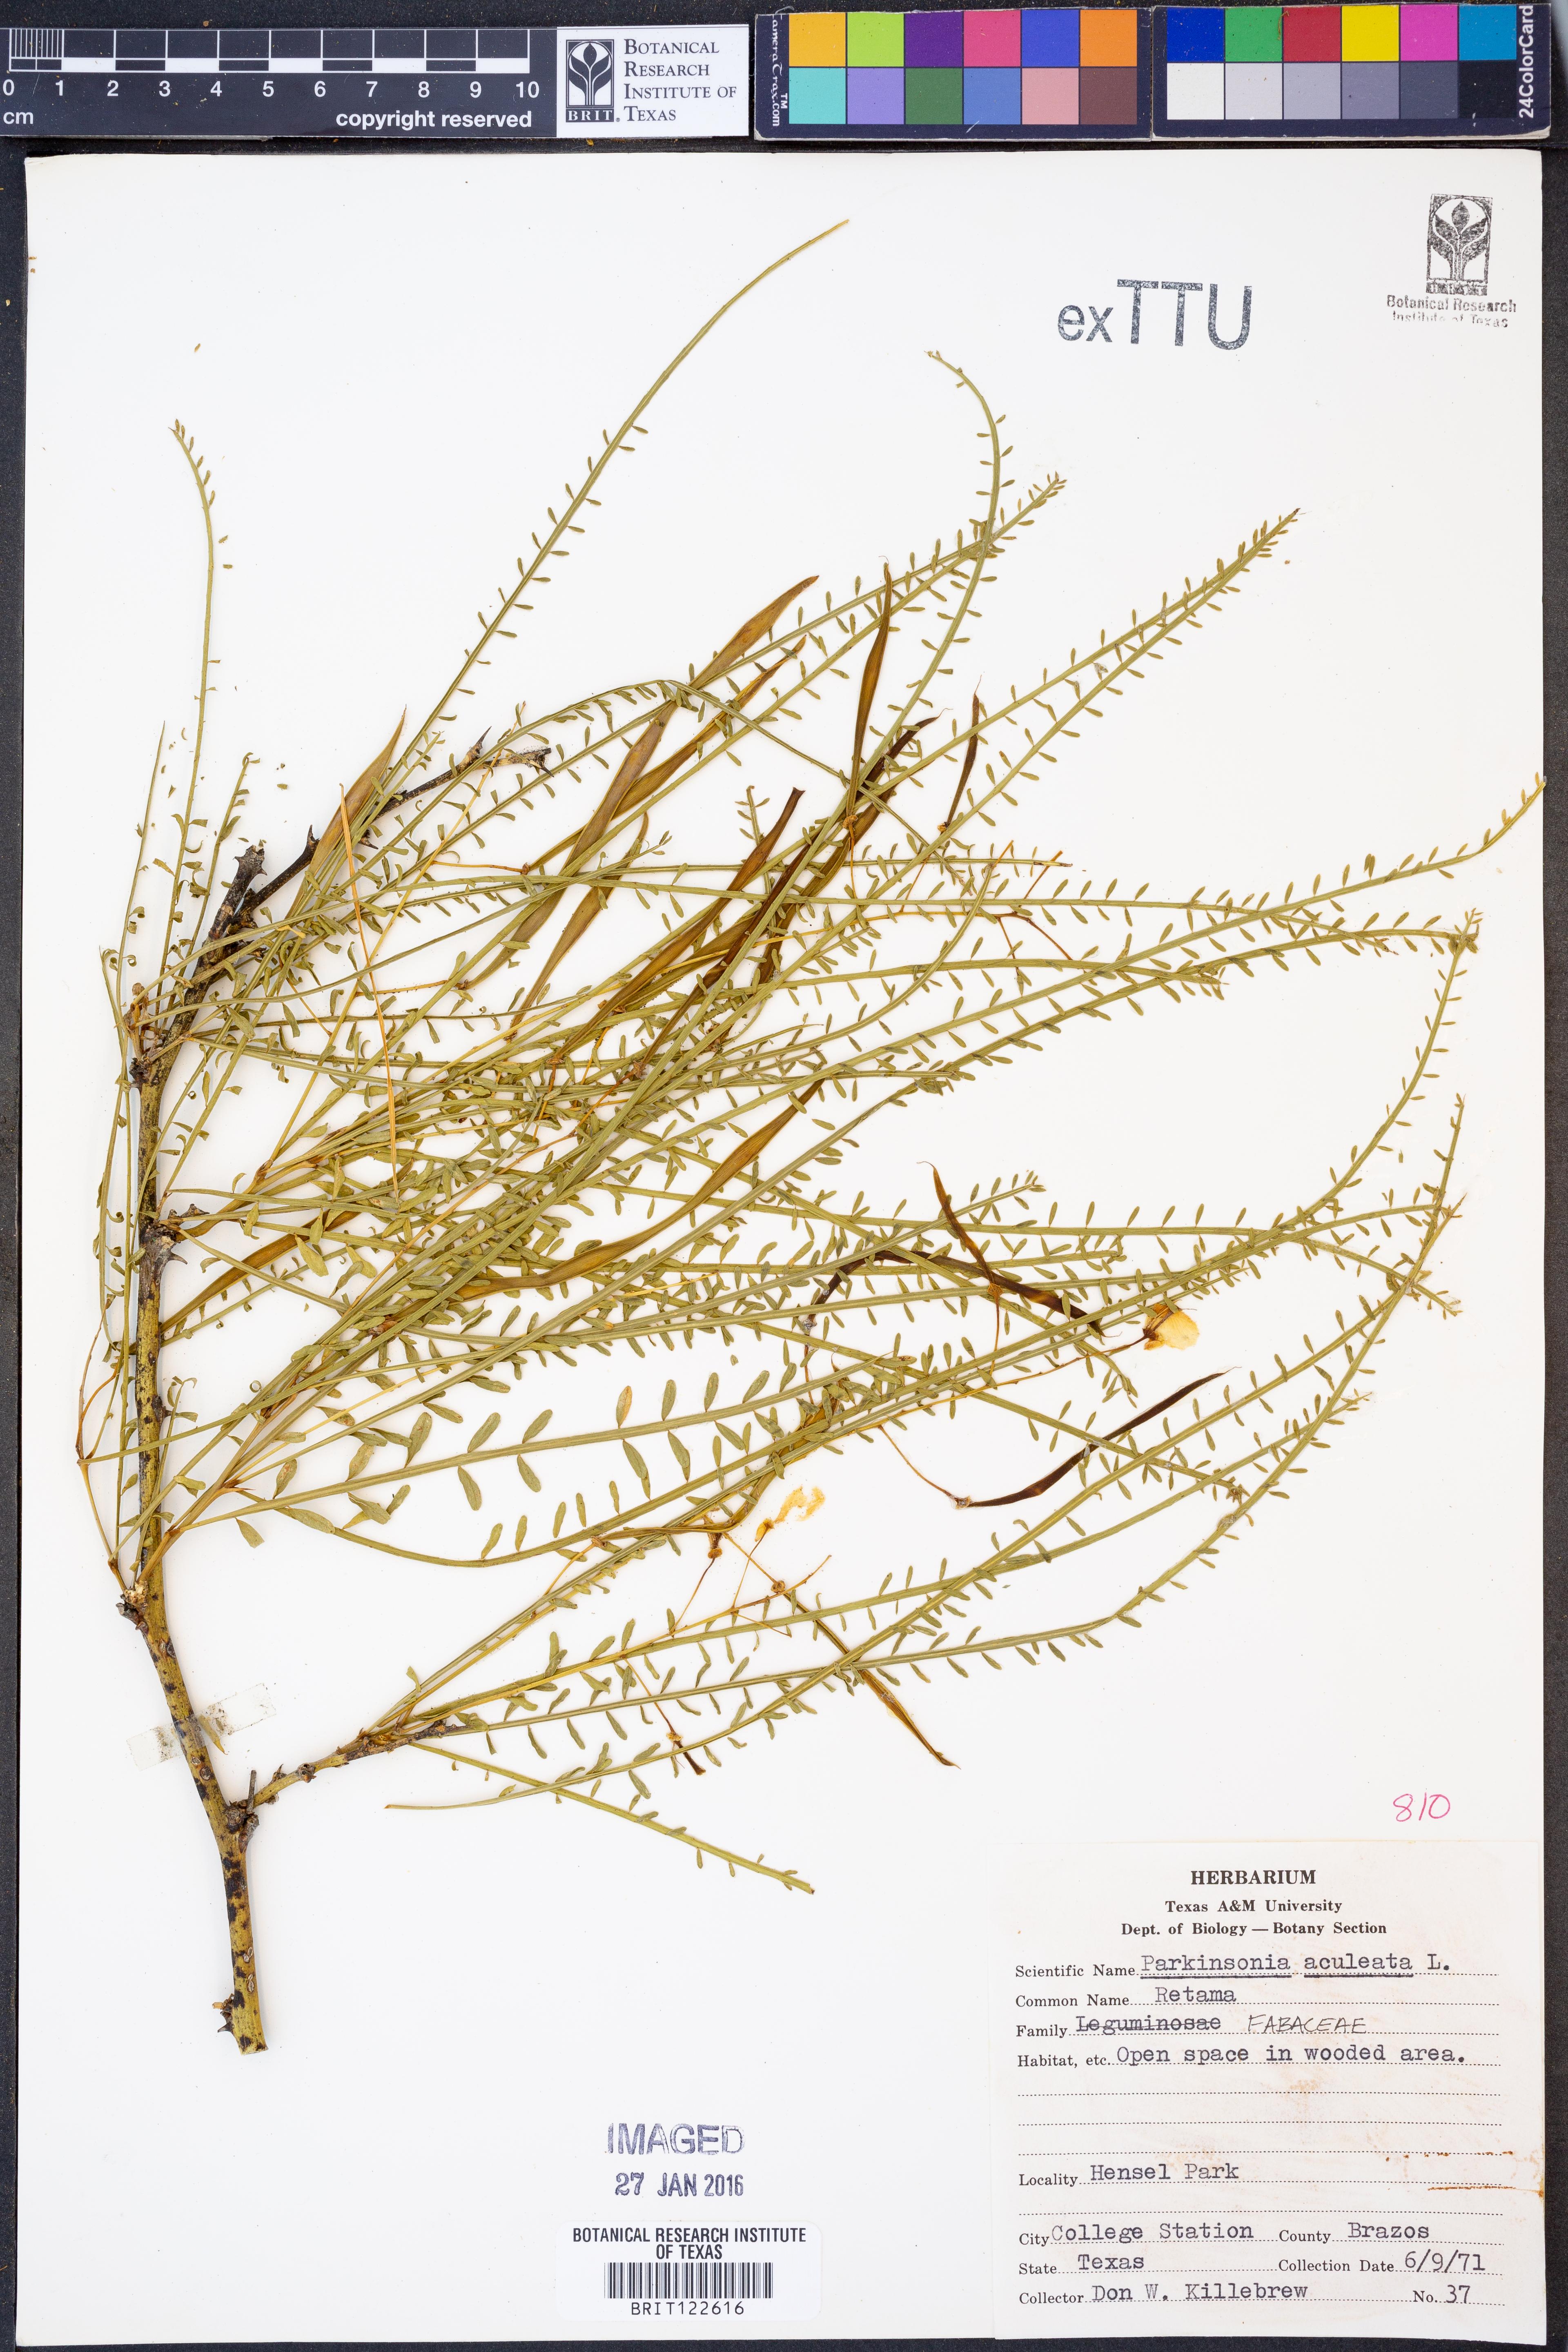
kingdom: Plantae
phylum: Tracheophyta
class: Magnoliopsida
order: Fabales
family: Fabaceae
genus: Parkinsonia
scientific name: Parkinsonia aculeata
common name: Jerusalem thorn
